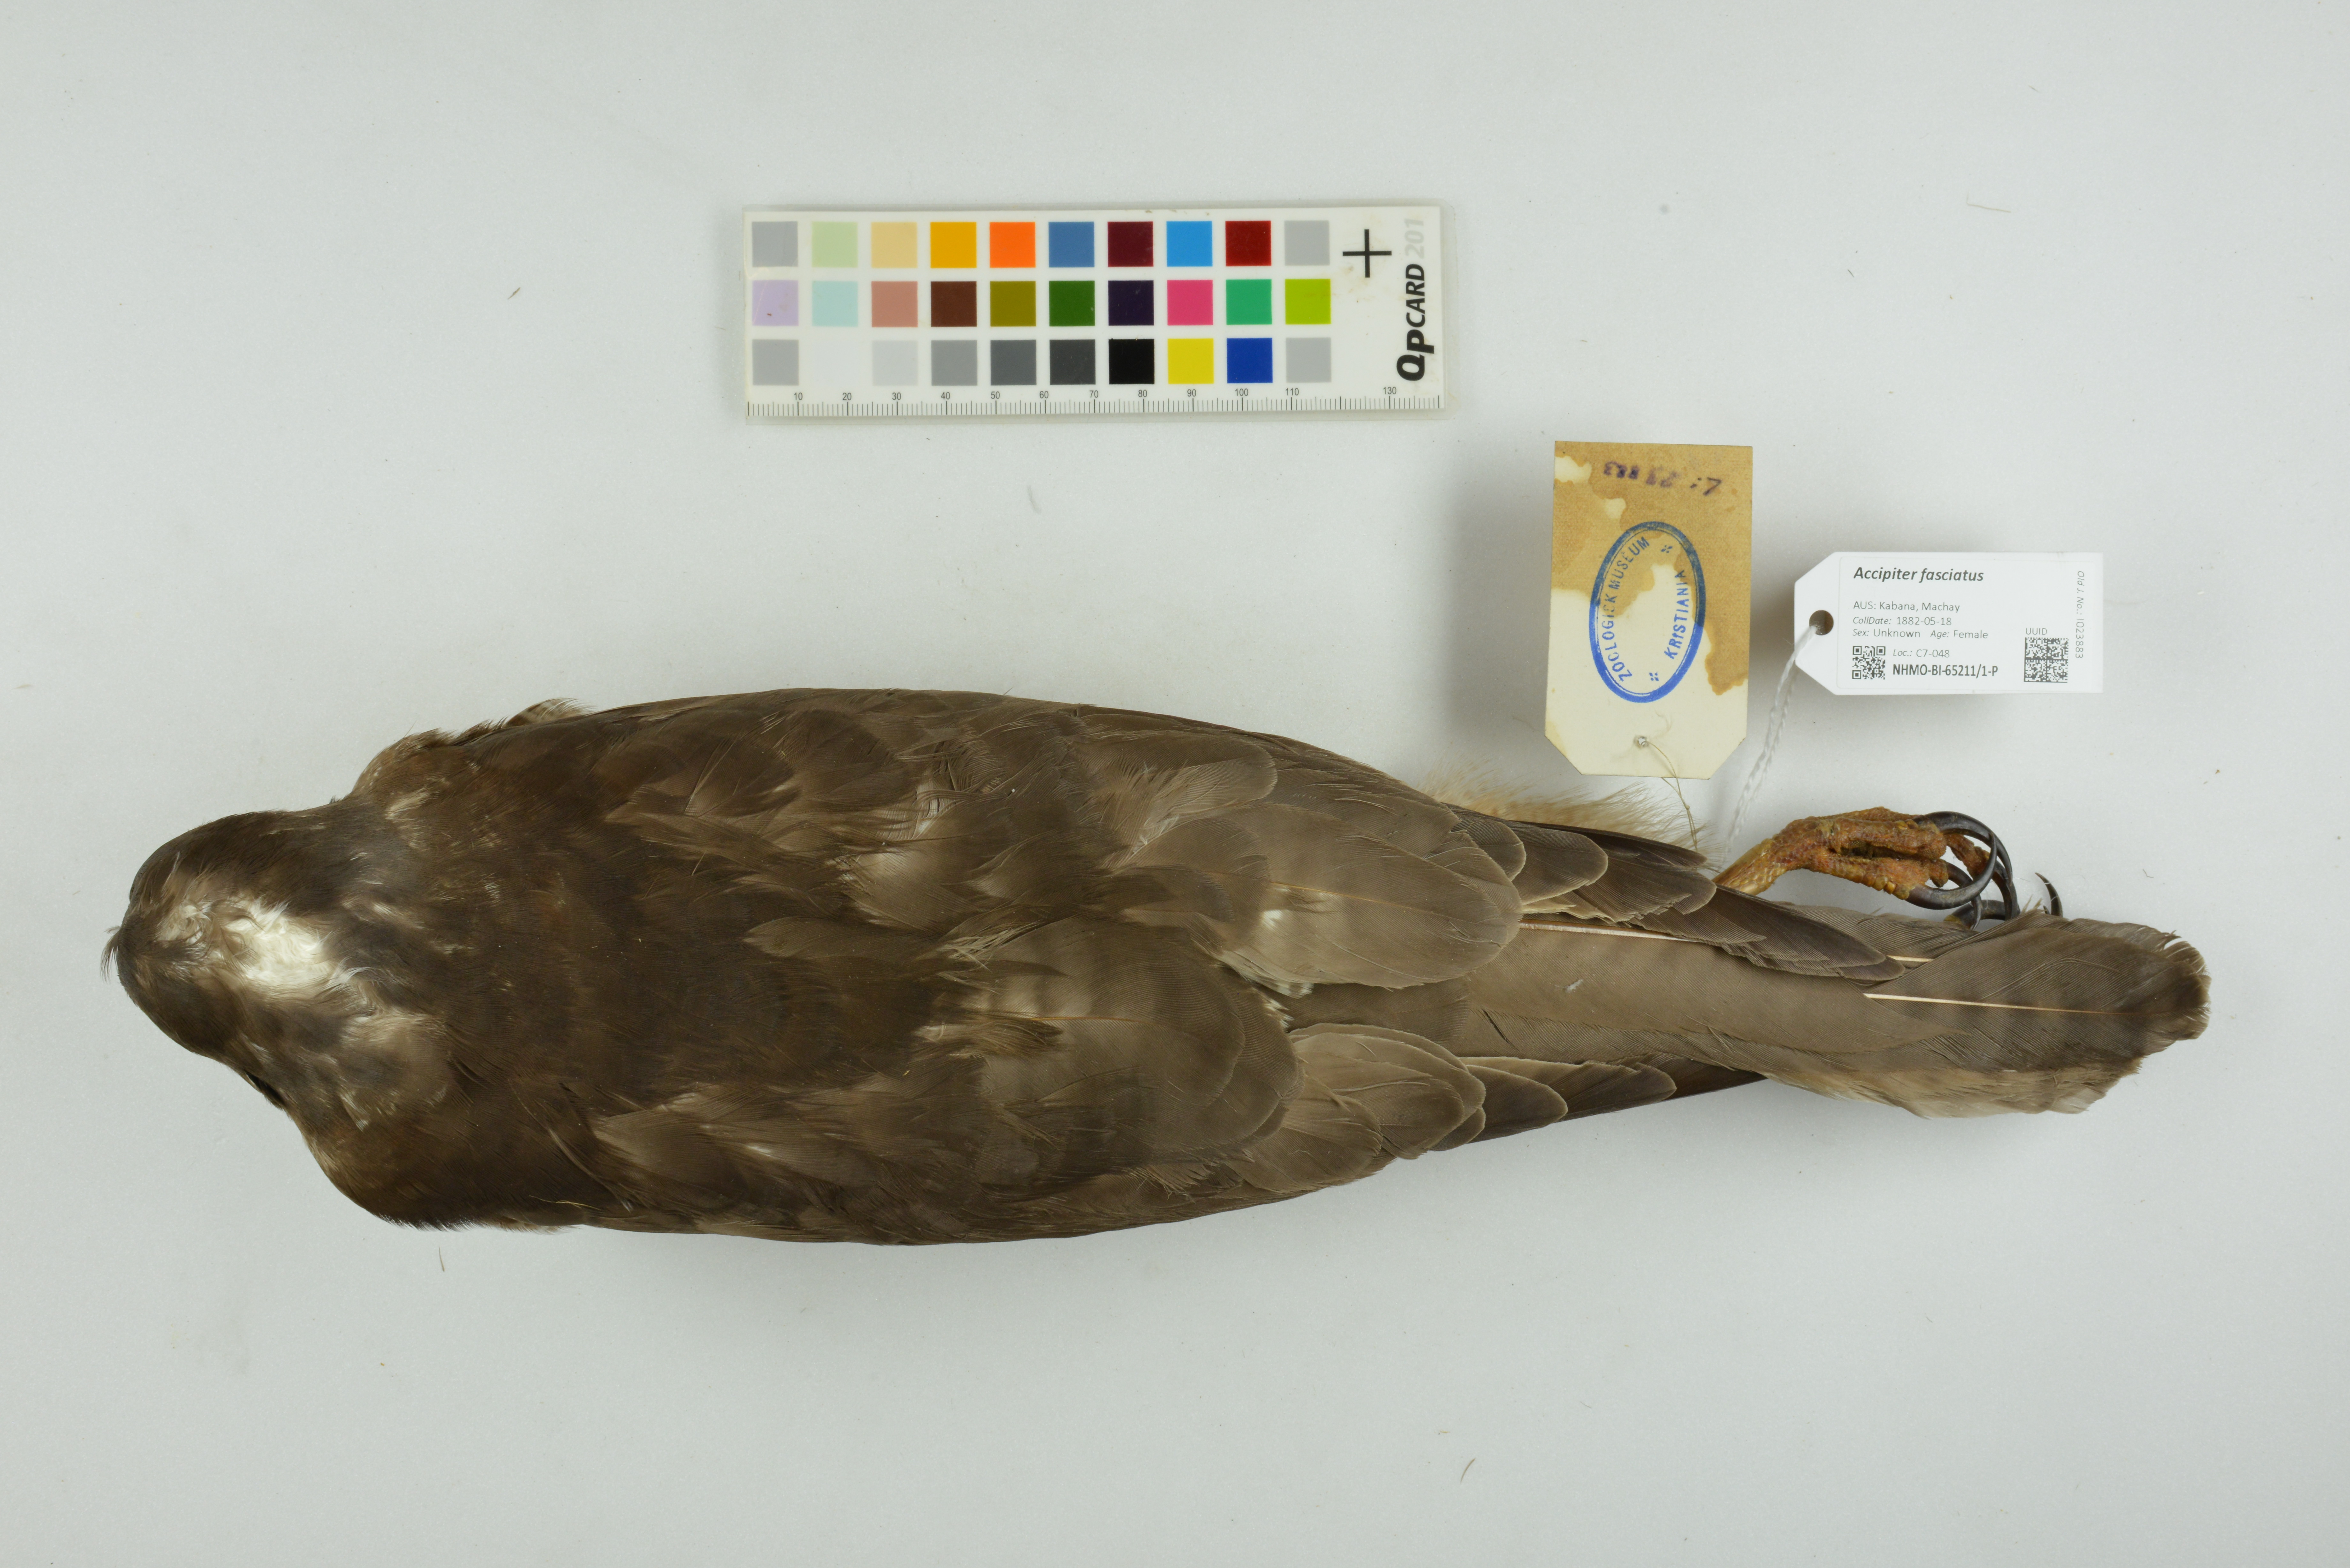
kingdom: Animalia
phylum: Chordata
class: Aves
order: Accipitriformes
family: Accipitridae
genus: Accipiter
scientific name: Accipiter fasciatus
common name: Brown goshawk
